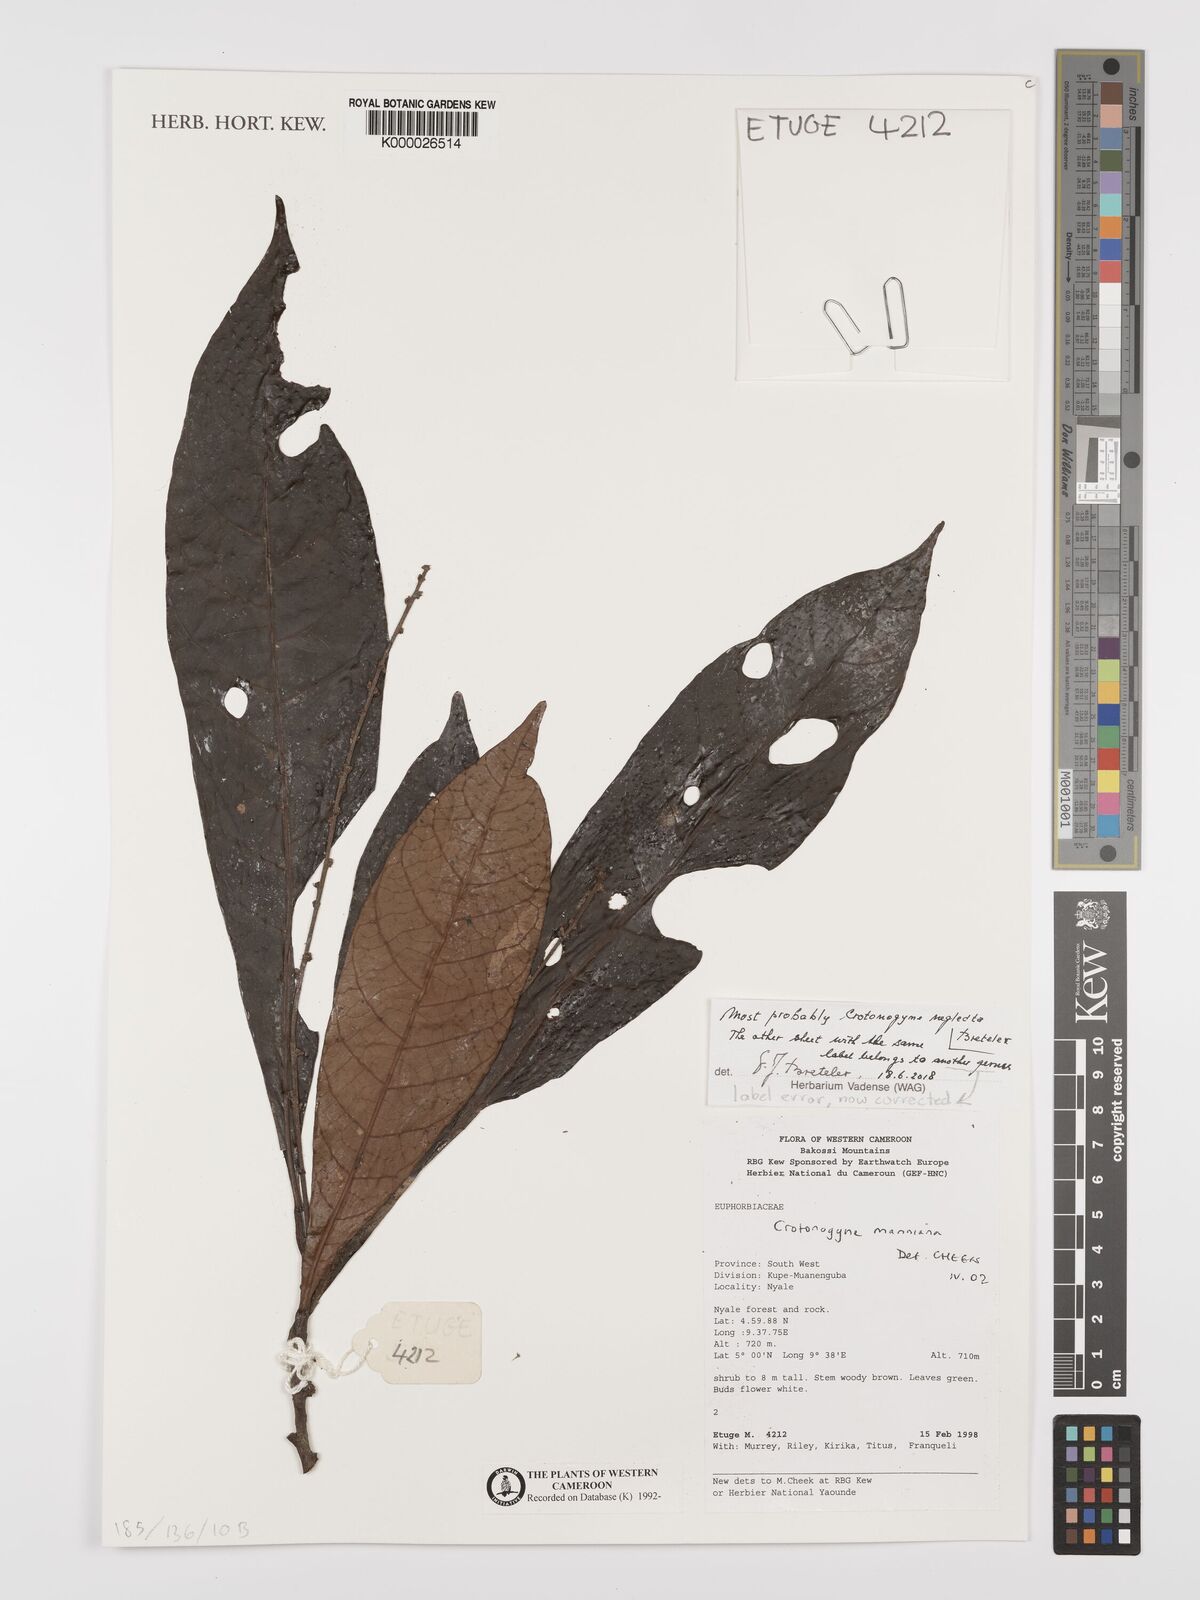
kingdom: Plantae
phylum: Tracheophyta
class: Magnoliopsida
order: Malpighiales
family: Euphorbiaceae
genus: Crotonogyne
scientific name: Crotonogyne neglecta
